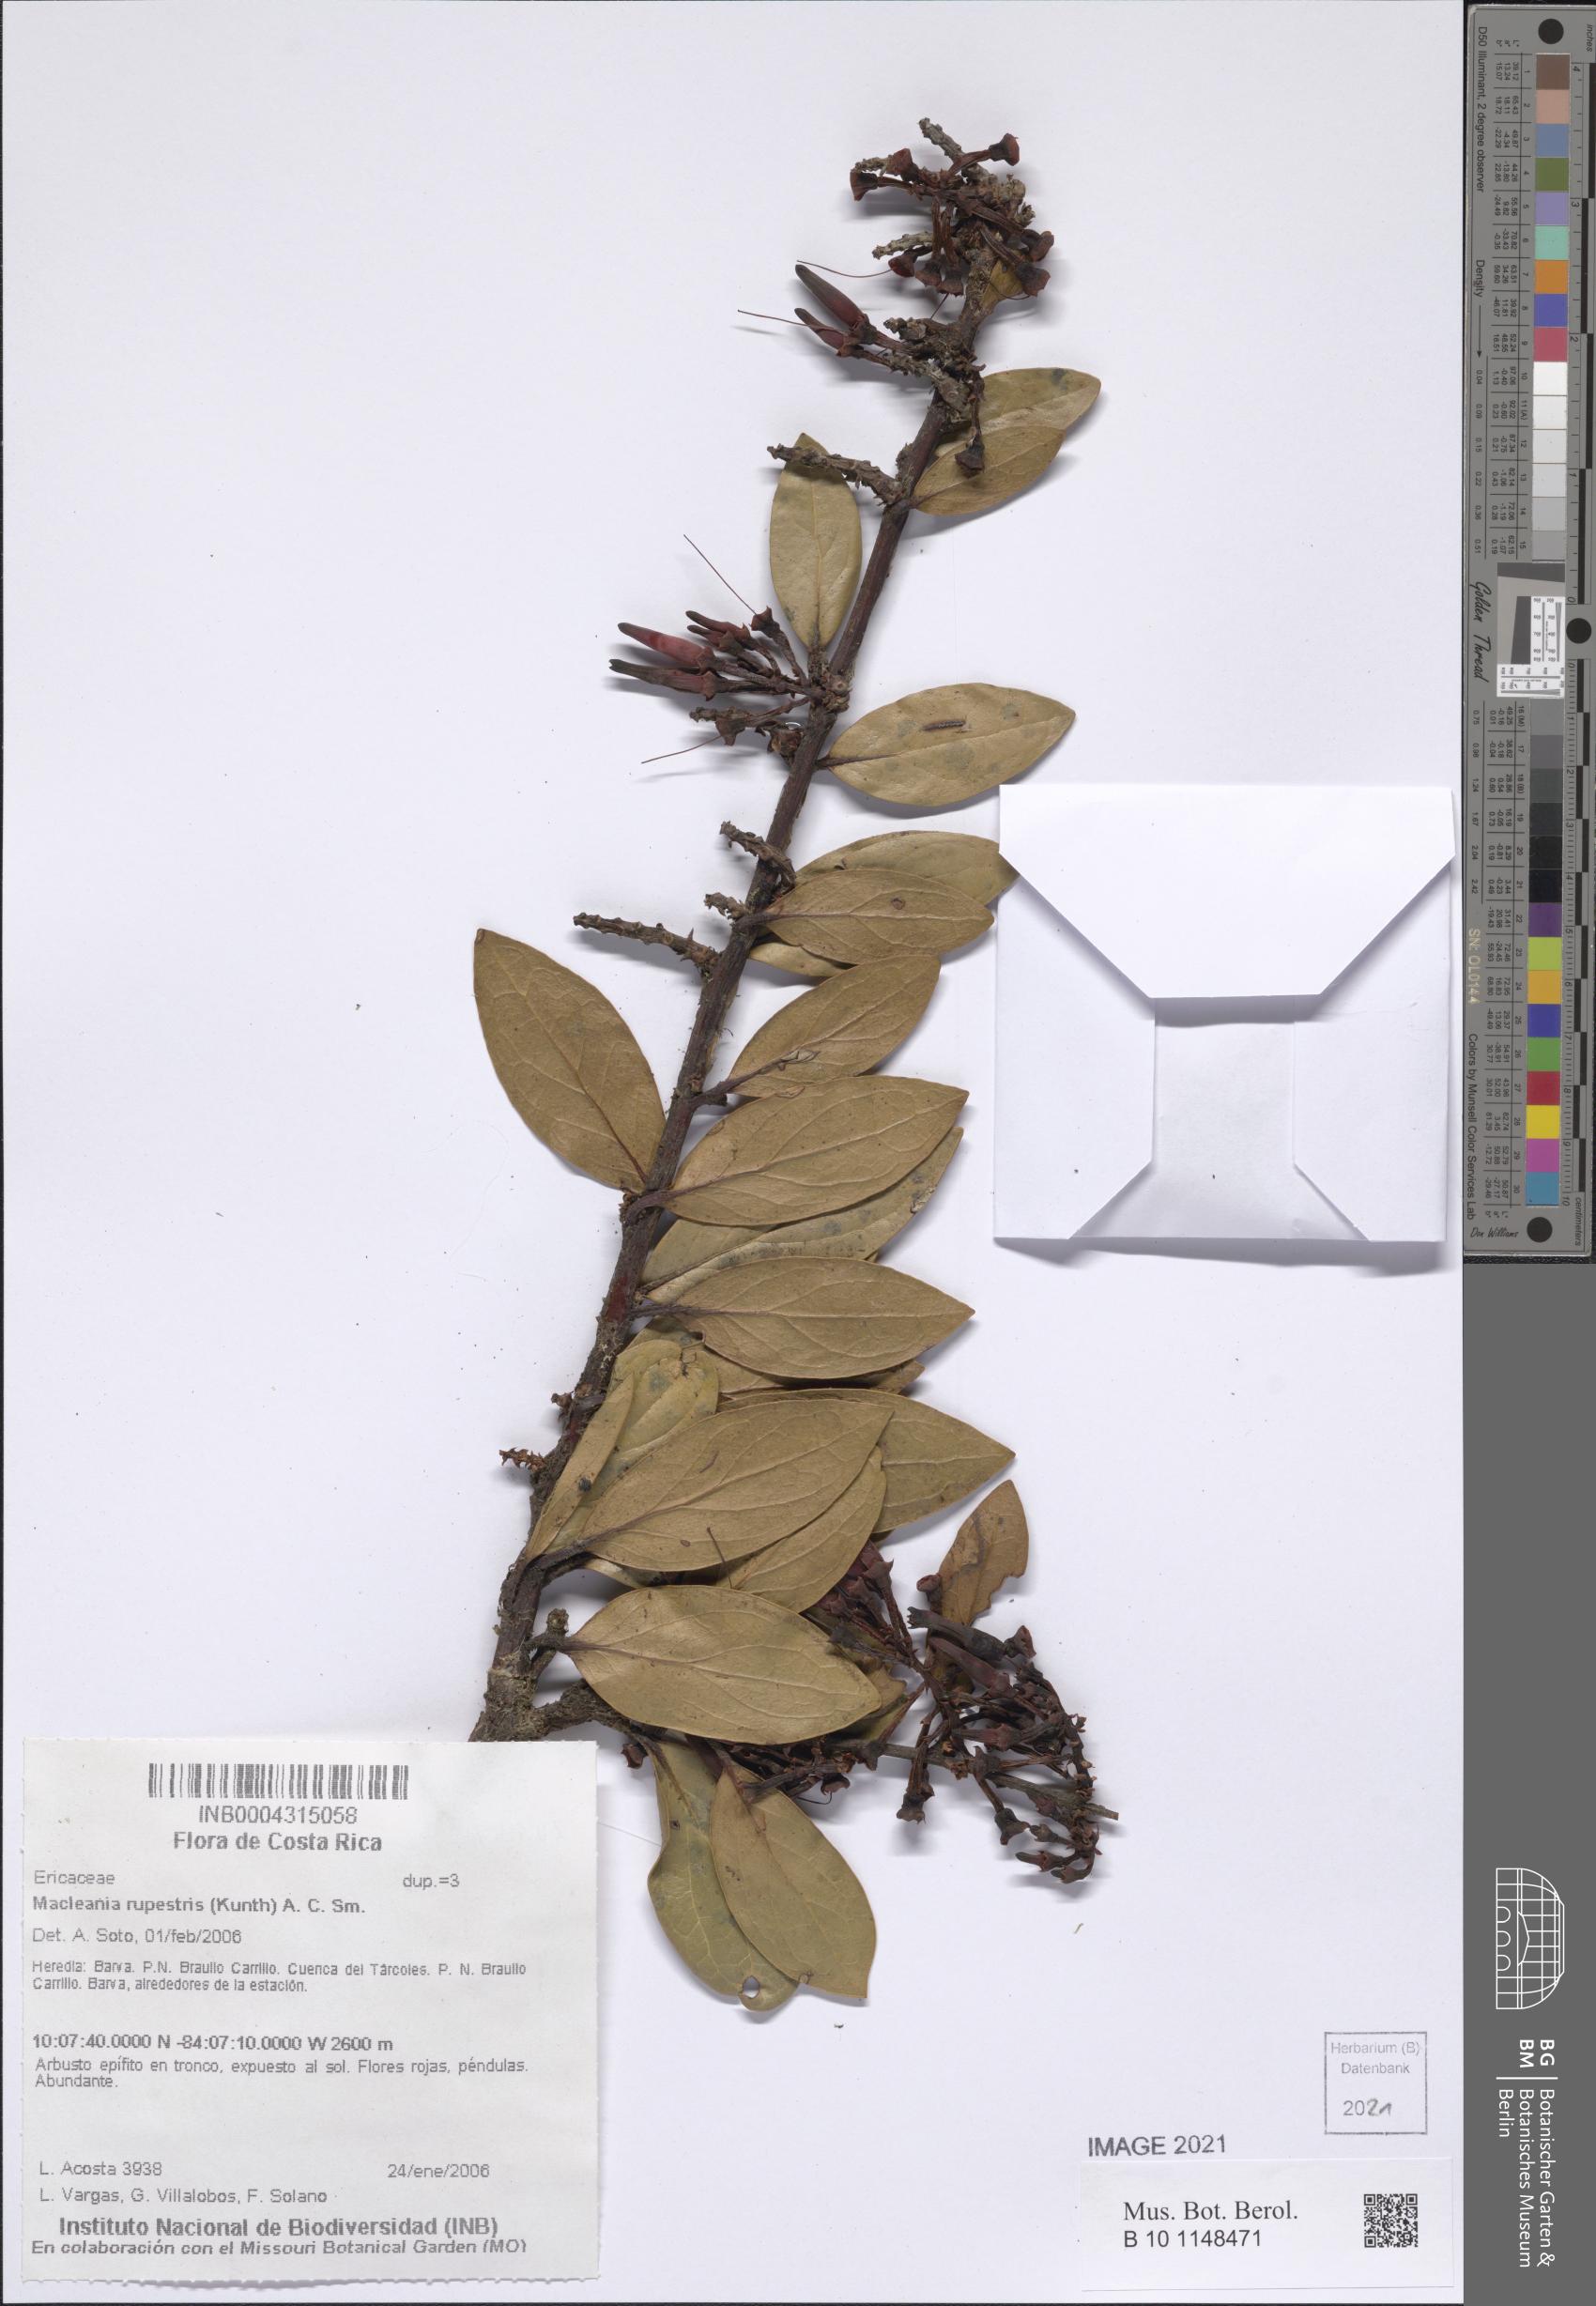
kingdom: Plantae
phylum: Tracheophyta
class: Magnoliopsida
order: Ericales
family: Ericaceae
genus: Macleania
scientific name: Macleania rupestris
